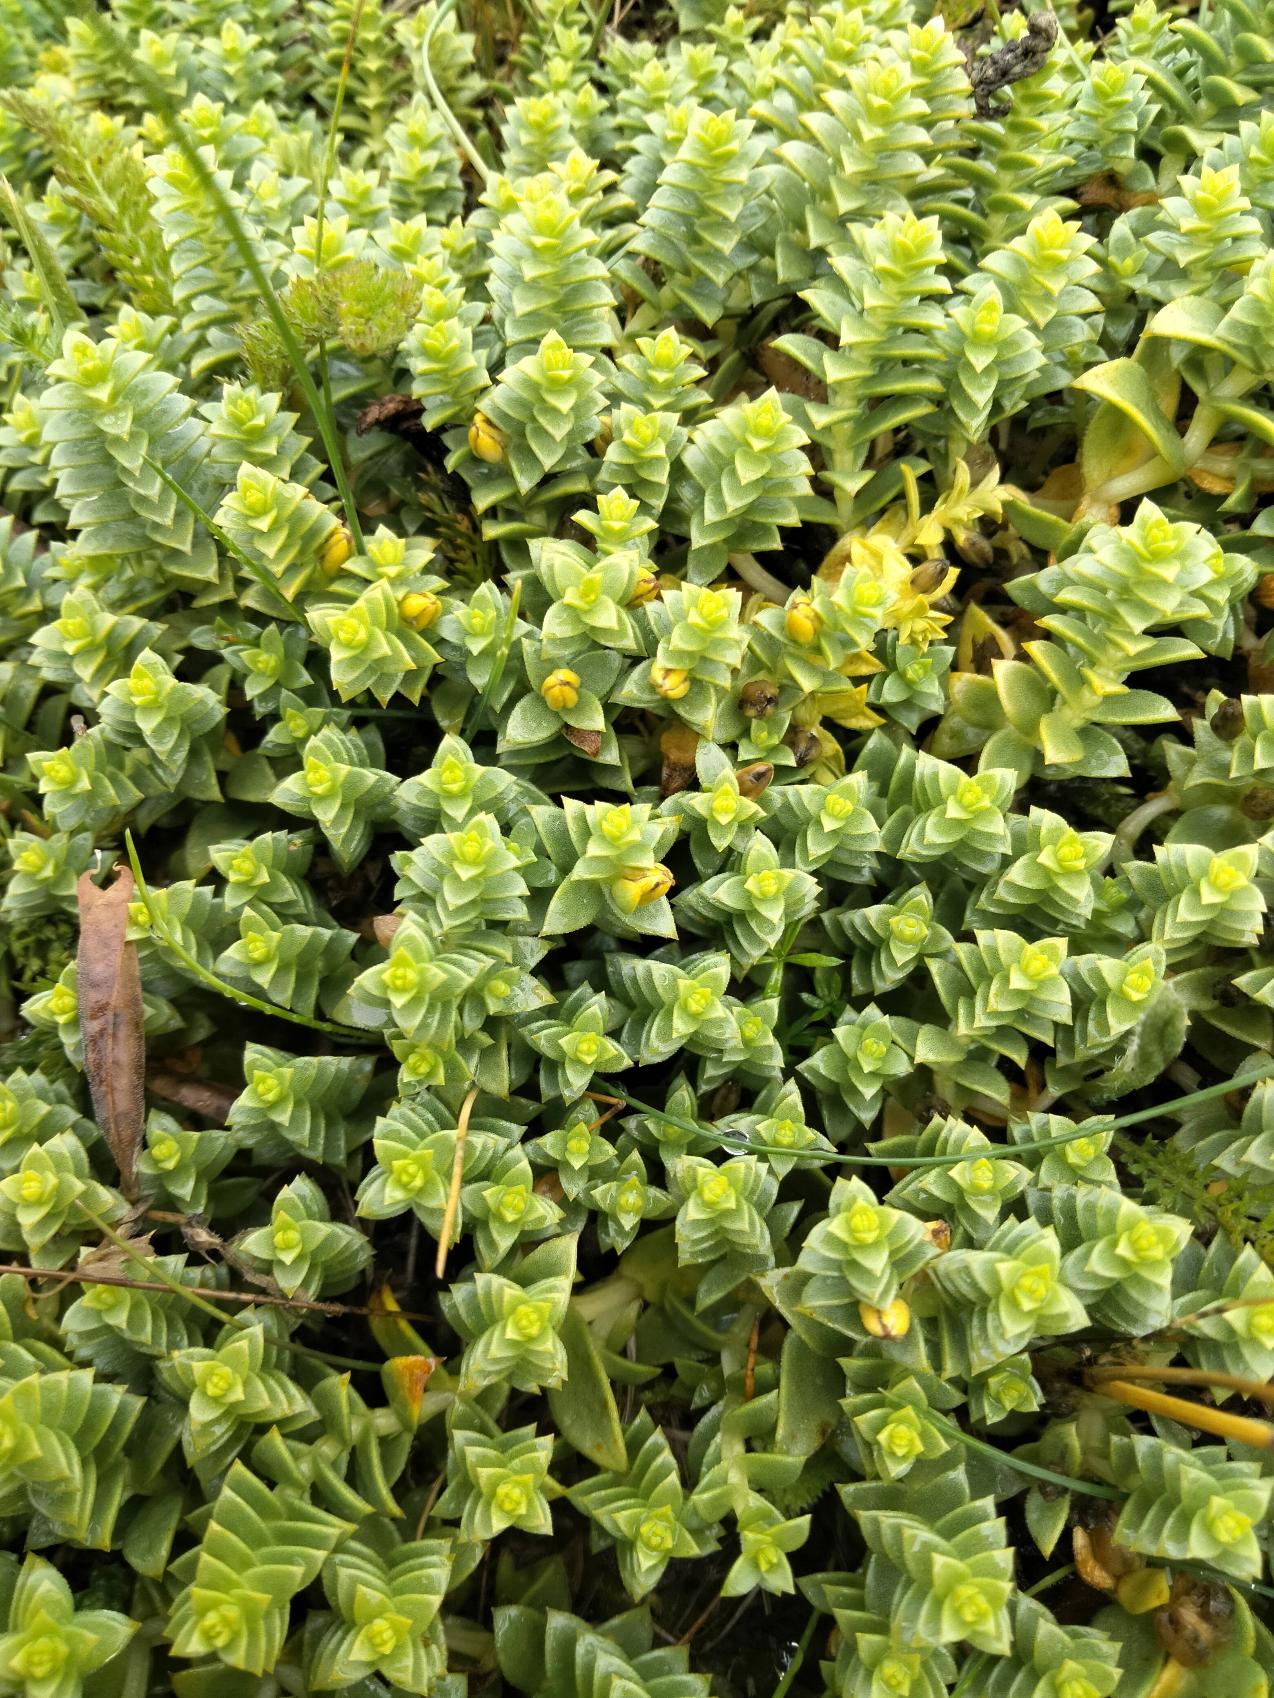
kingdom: Plantae
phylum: Tracheophyta
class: Magnoliopsida
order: Caryophyllales
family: Caryophyllaceae
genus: Honckenya
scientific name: Honckenya peploides
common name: Strandarve
